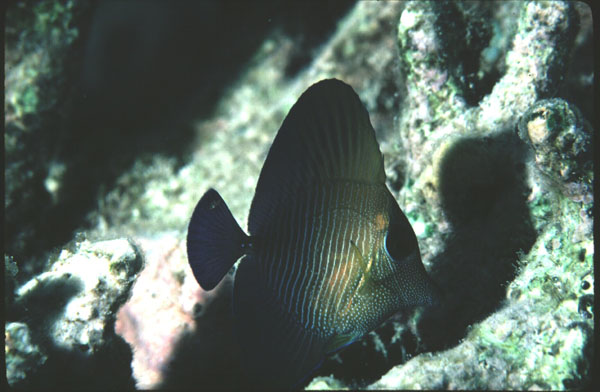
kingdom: Animalia
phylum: Chordata
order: Perciformes
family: Acanthuridae
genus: Zebrasoma
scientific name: Zebrasoma scopas
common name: Twotone tang
